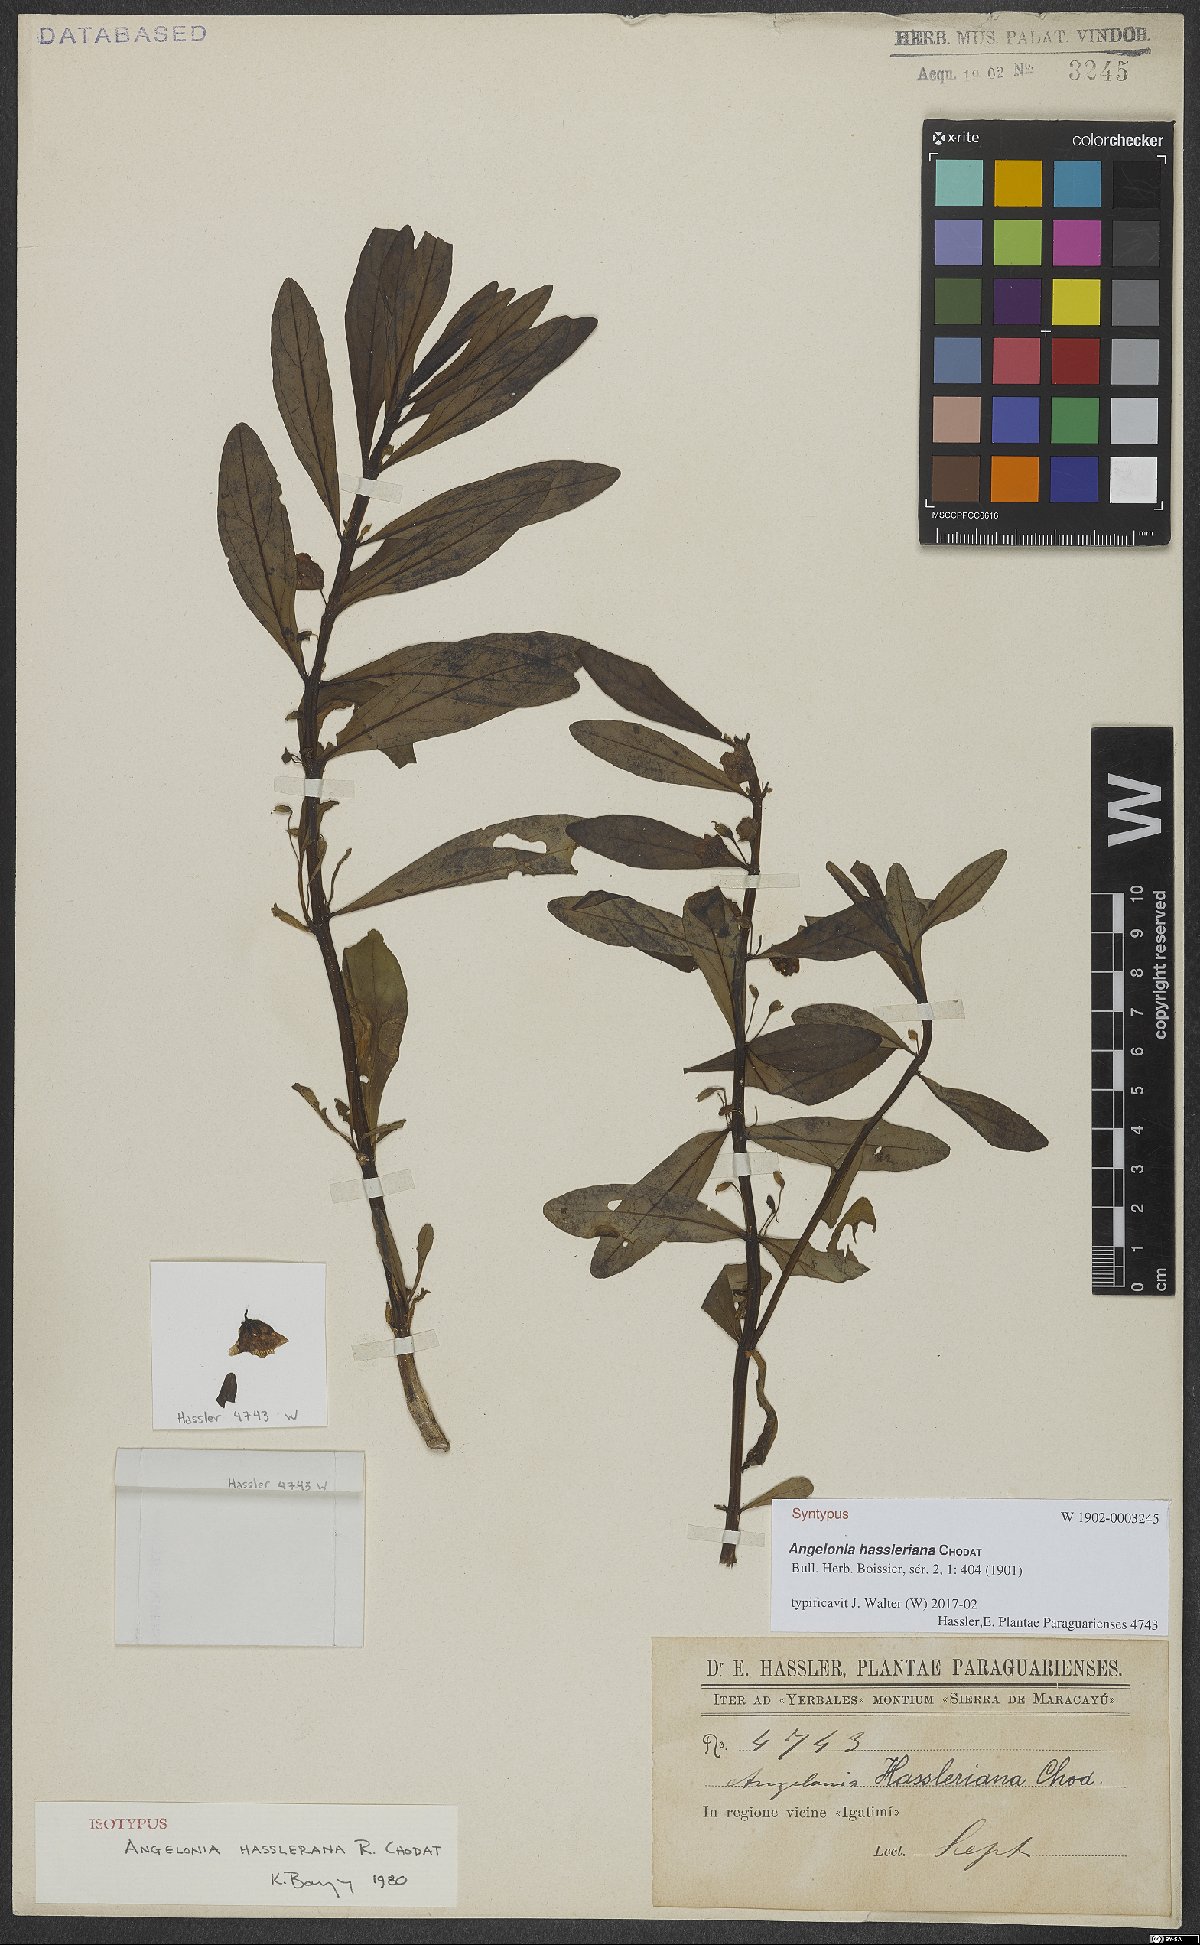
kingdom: Plantae
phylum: Tracheophyta
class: Magnoliopsida
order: Lamiales
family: Plantaginaceae
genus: Angelonia
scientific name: Angelonia hassleriana
